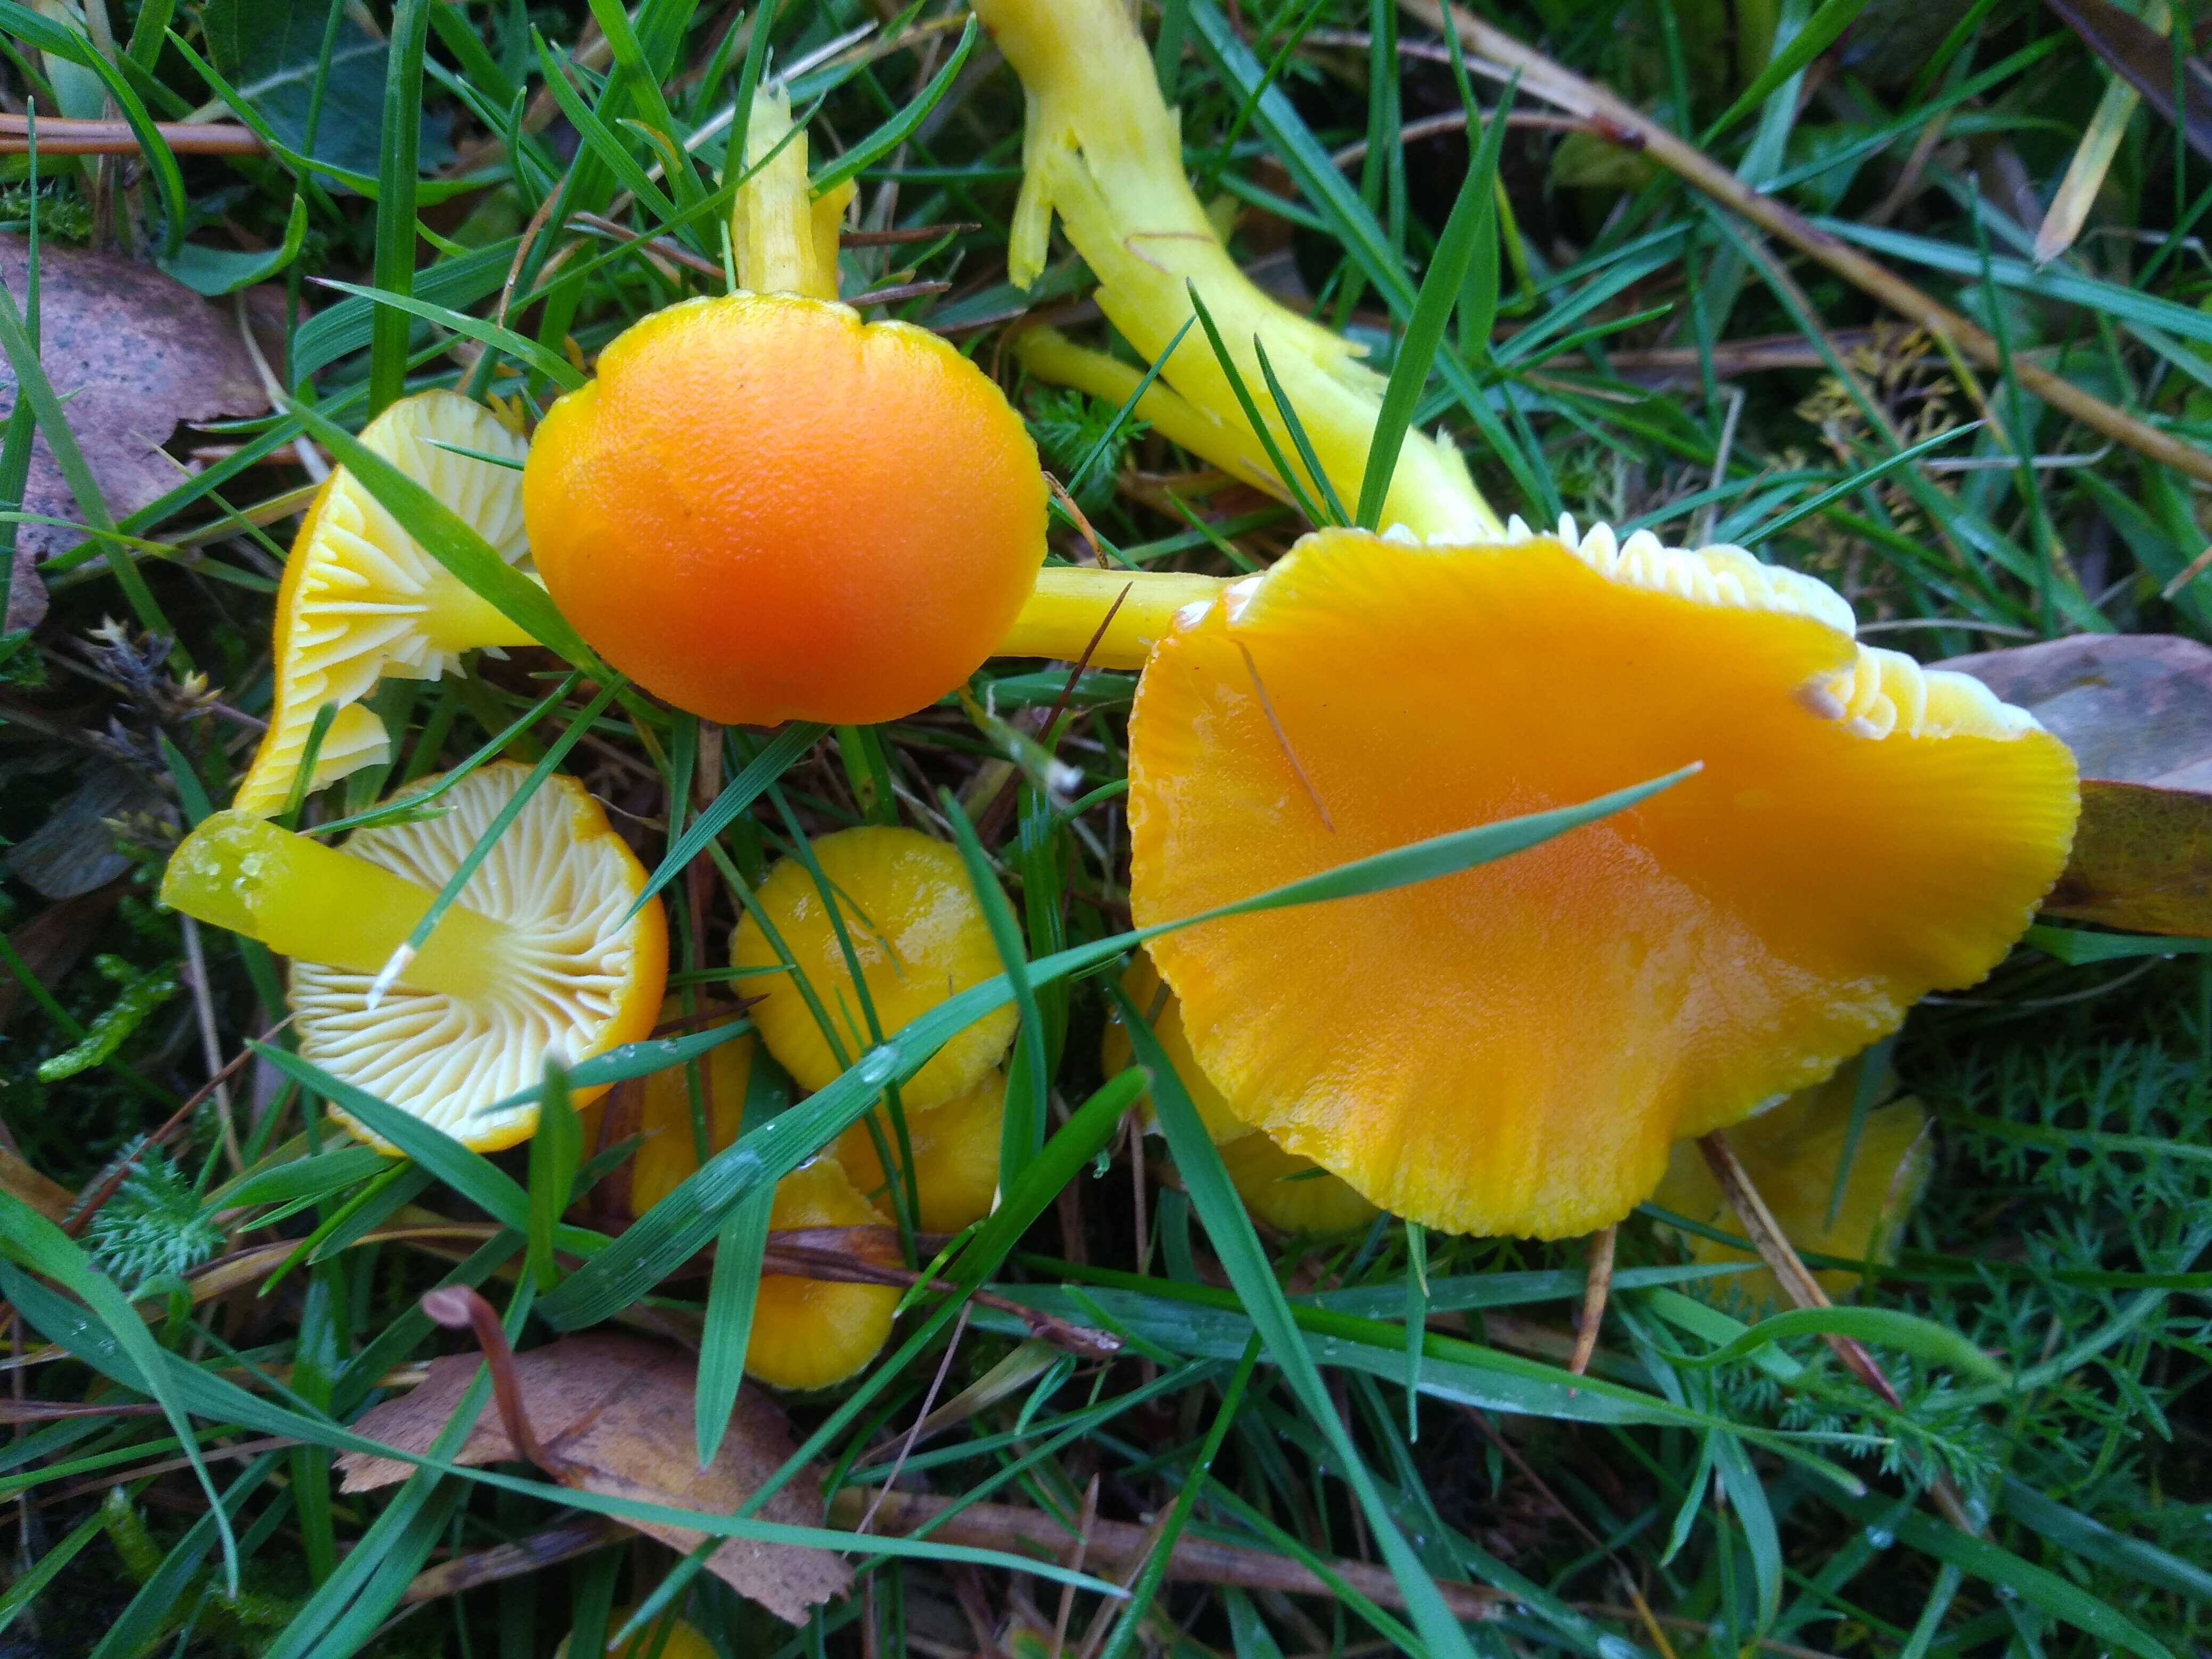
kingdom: Fungi
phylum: Basidiomycota
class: Agaricomycetes
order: Agaricales
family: Hygrophoraceae
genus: Hygrocybe
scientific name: Hygrocybe ceracea
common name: voksgul vokshat
